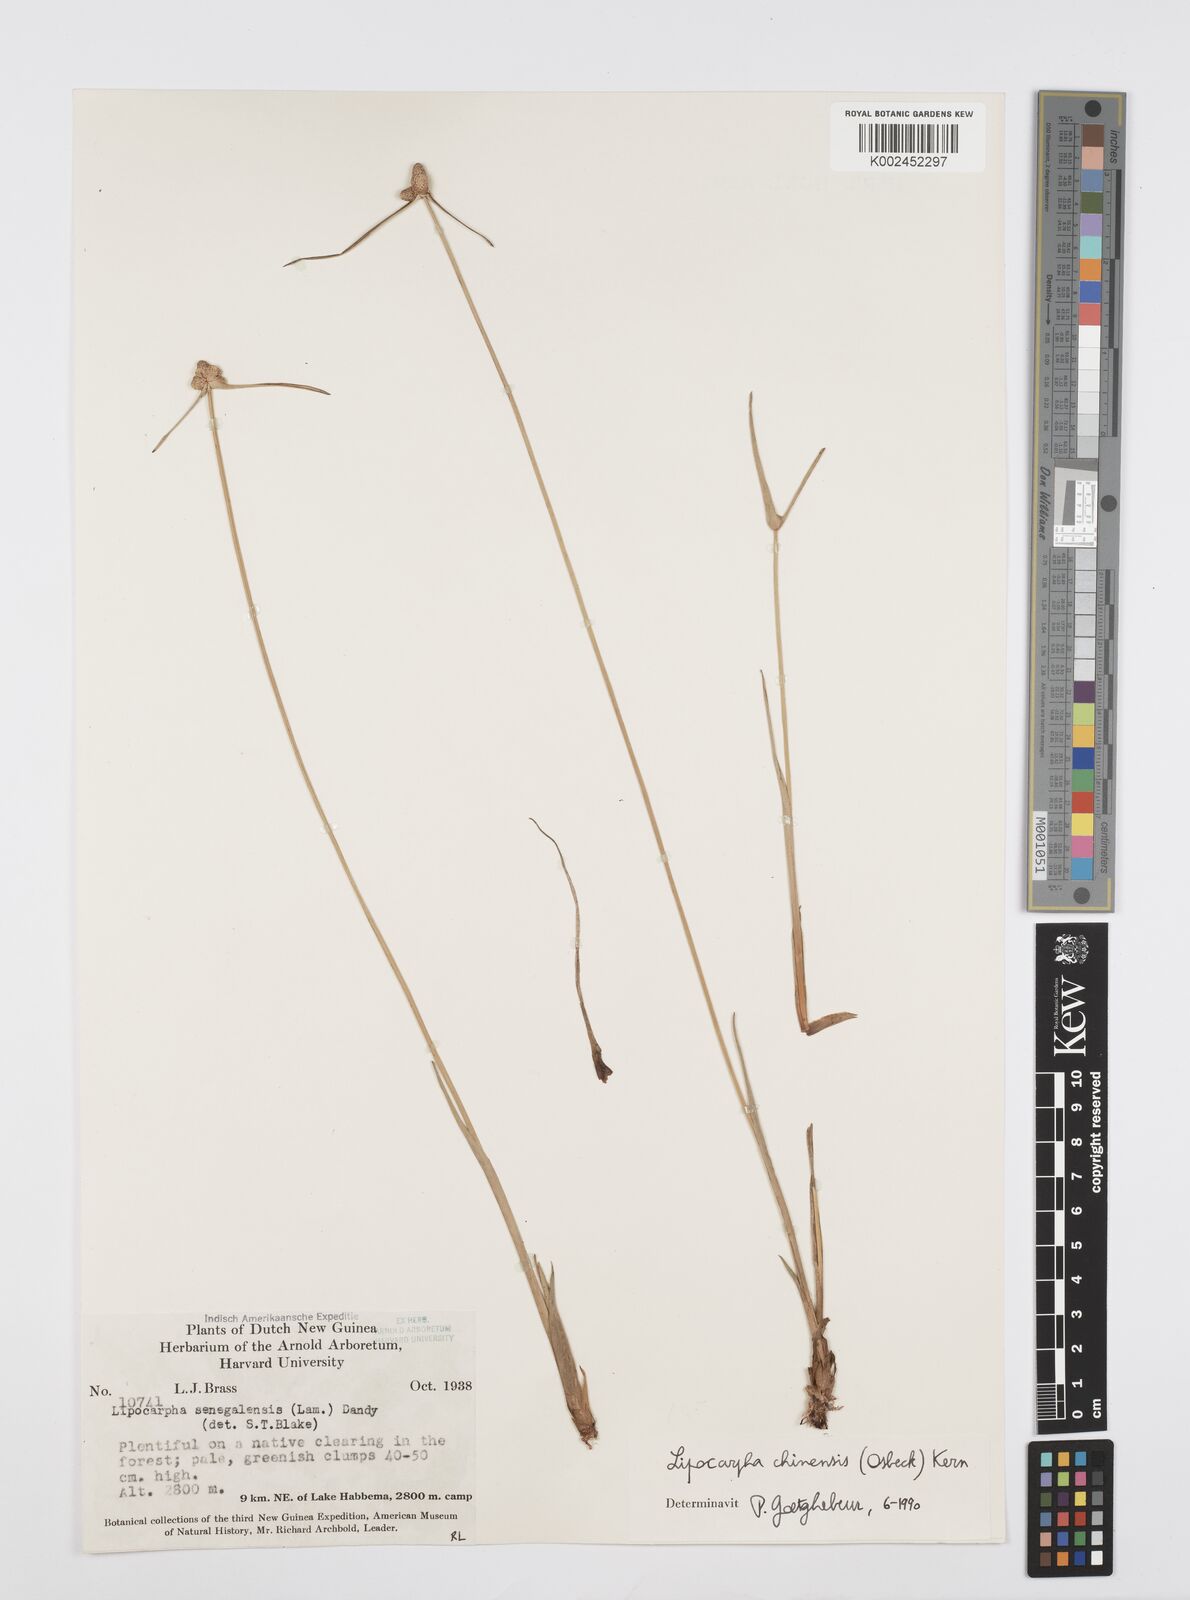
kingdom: Plantae
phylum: Tracheophyta
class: Liliopsida
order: Poales
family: Cyperaceae
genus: Cyperus
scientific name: Cyperus albescens
